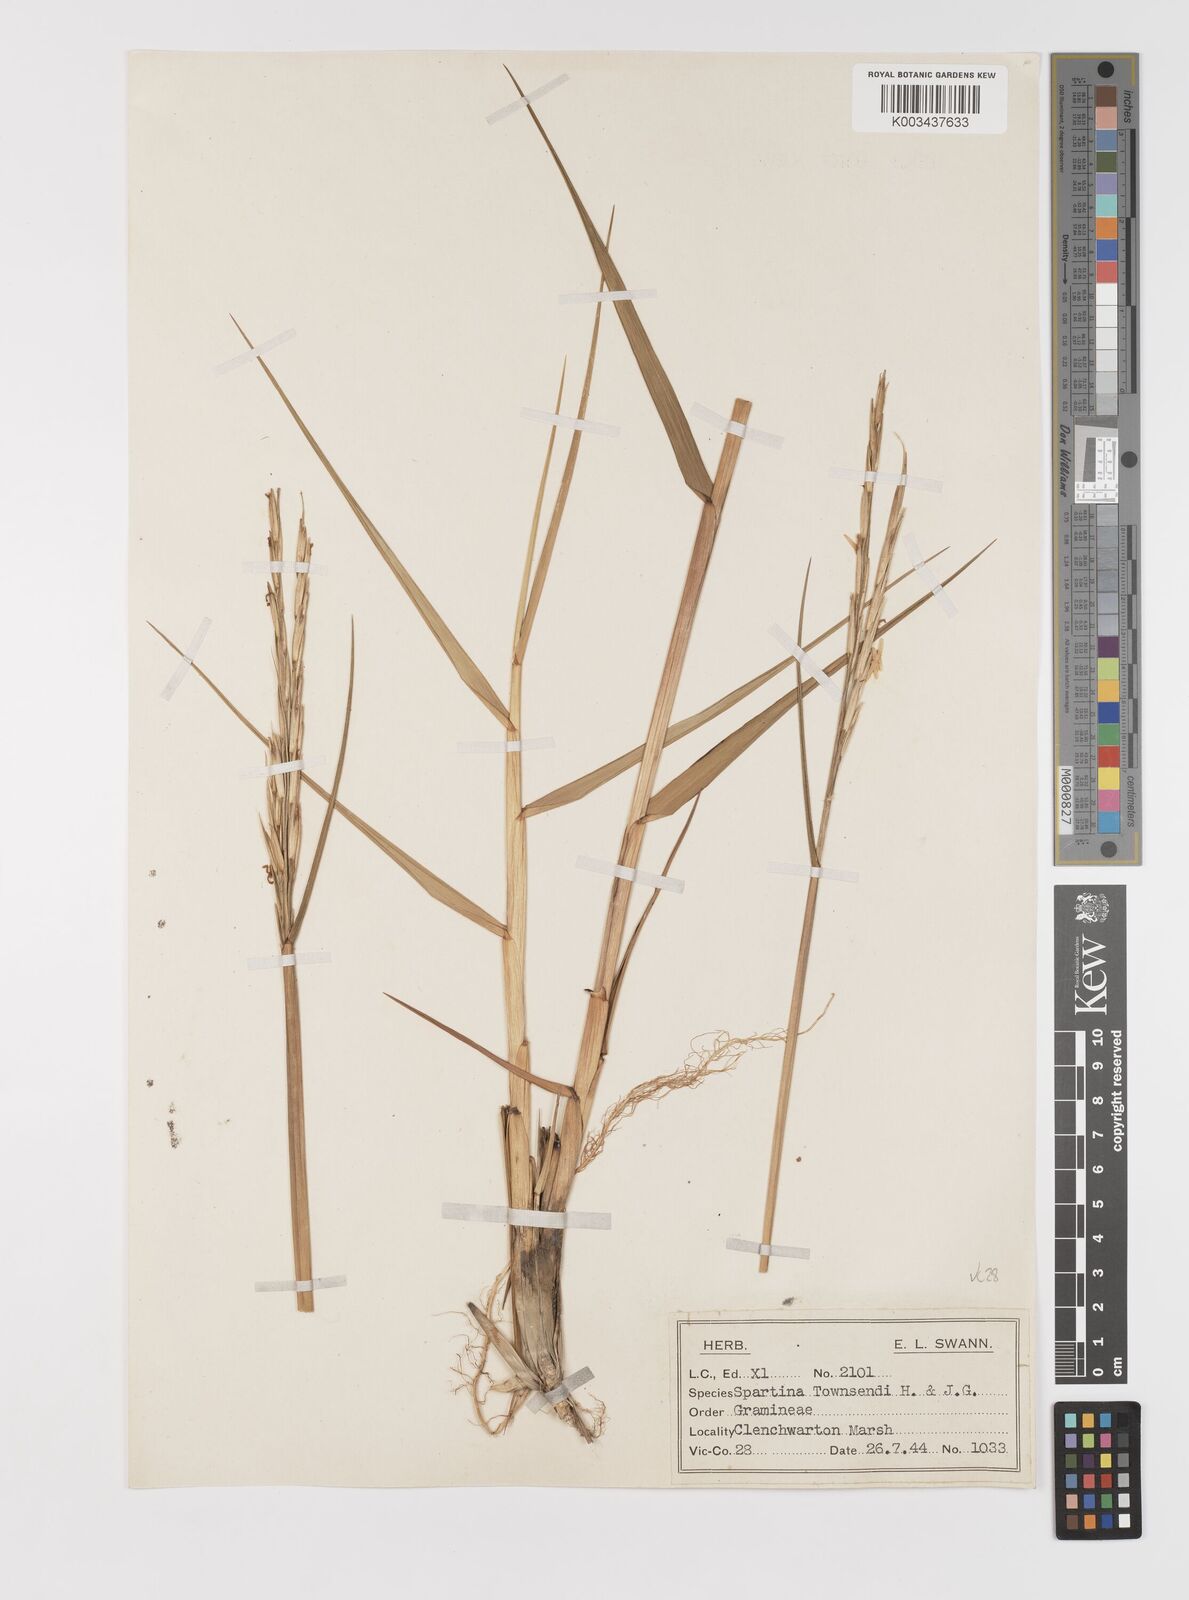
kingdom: Plantae
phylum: Tracheophyta
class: Liliopsida
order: Poales
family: Poaceae
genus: Sporobolus
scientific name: Sporobolus anglicus
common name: English cordgrass
